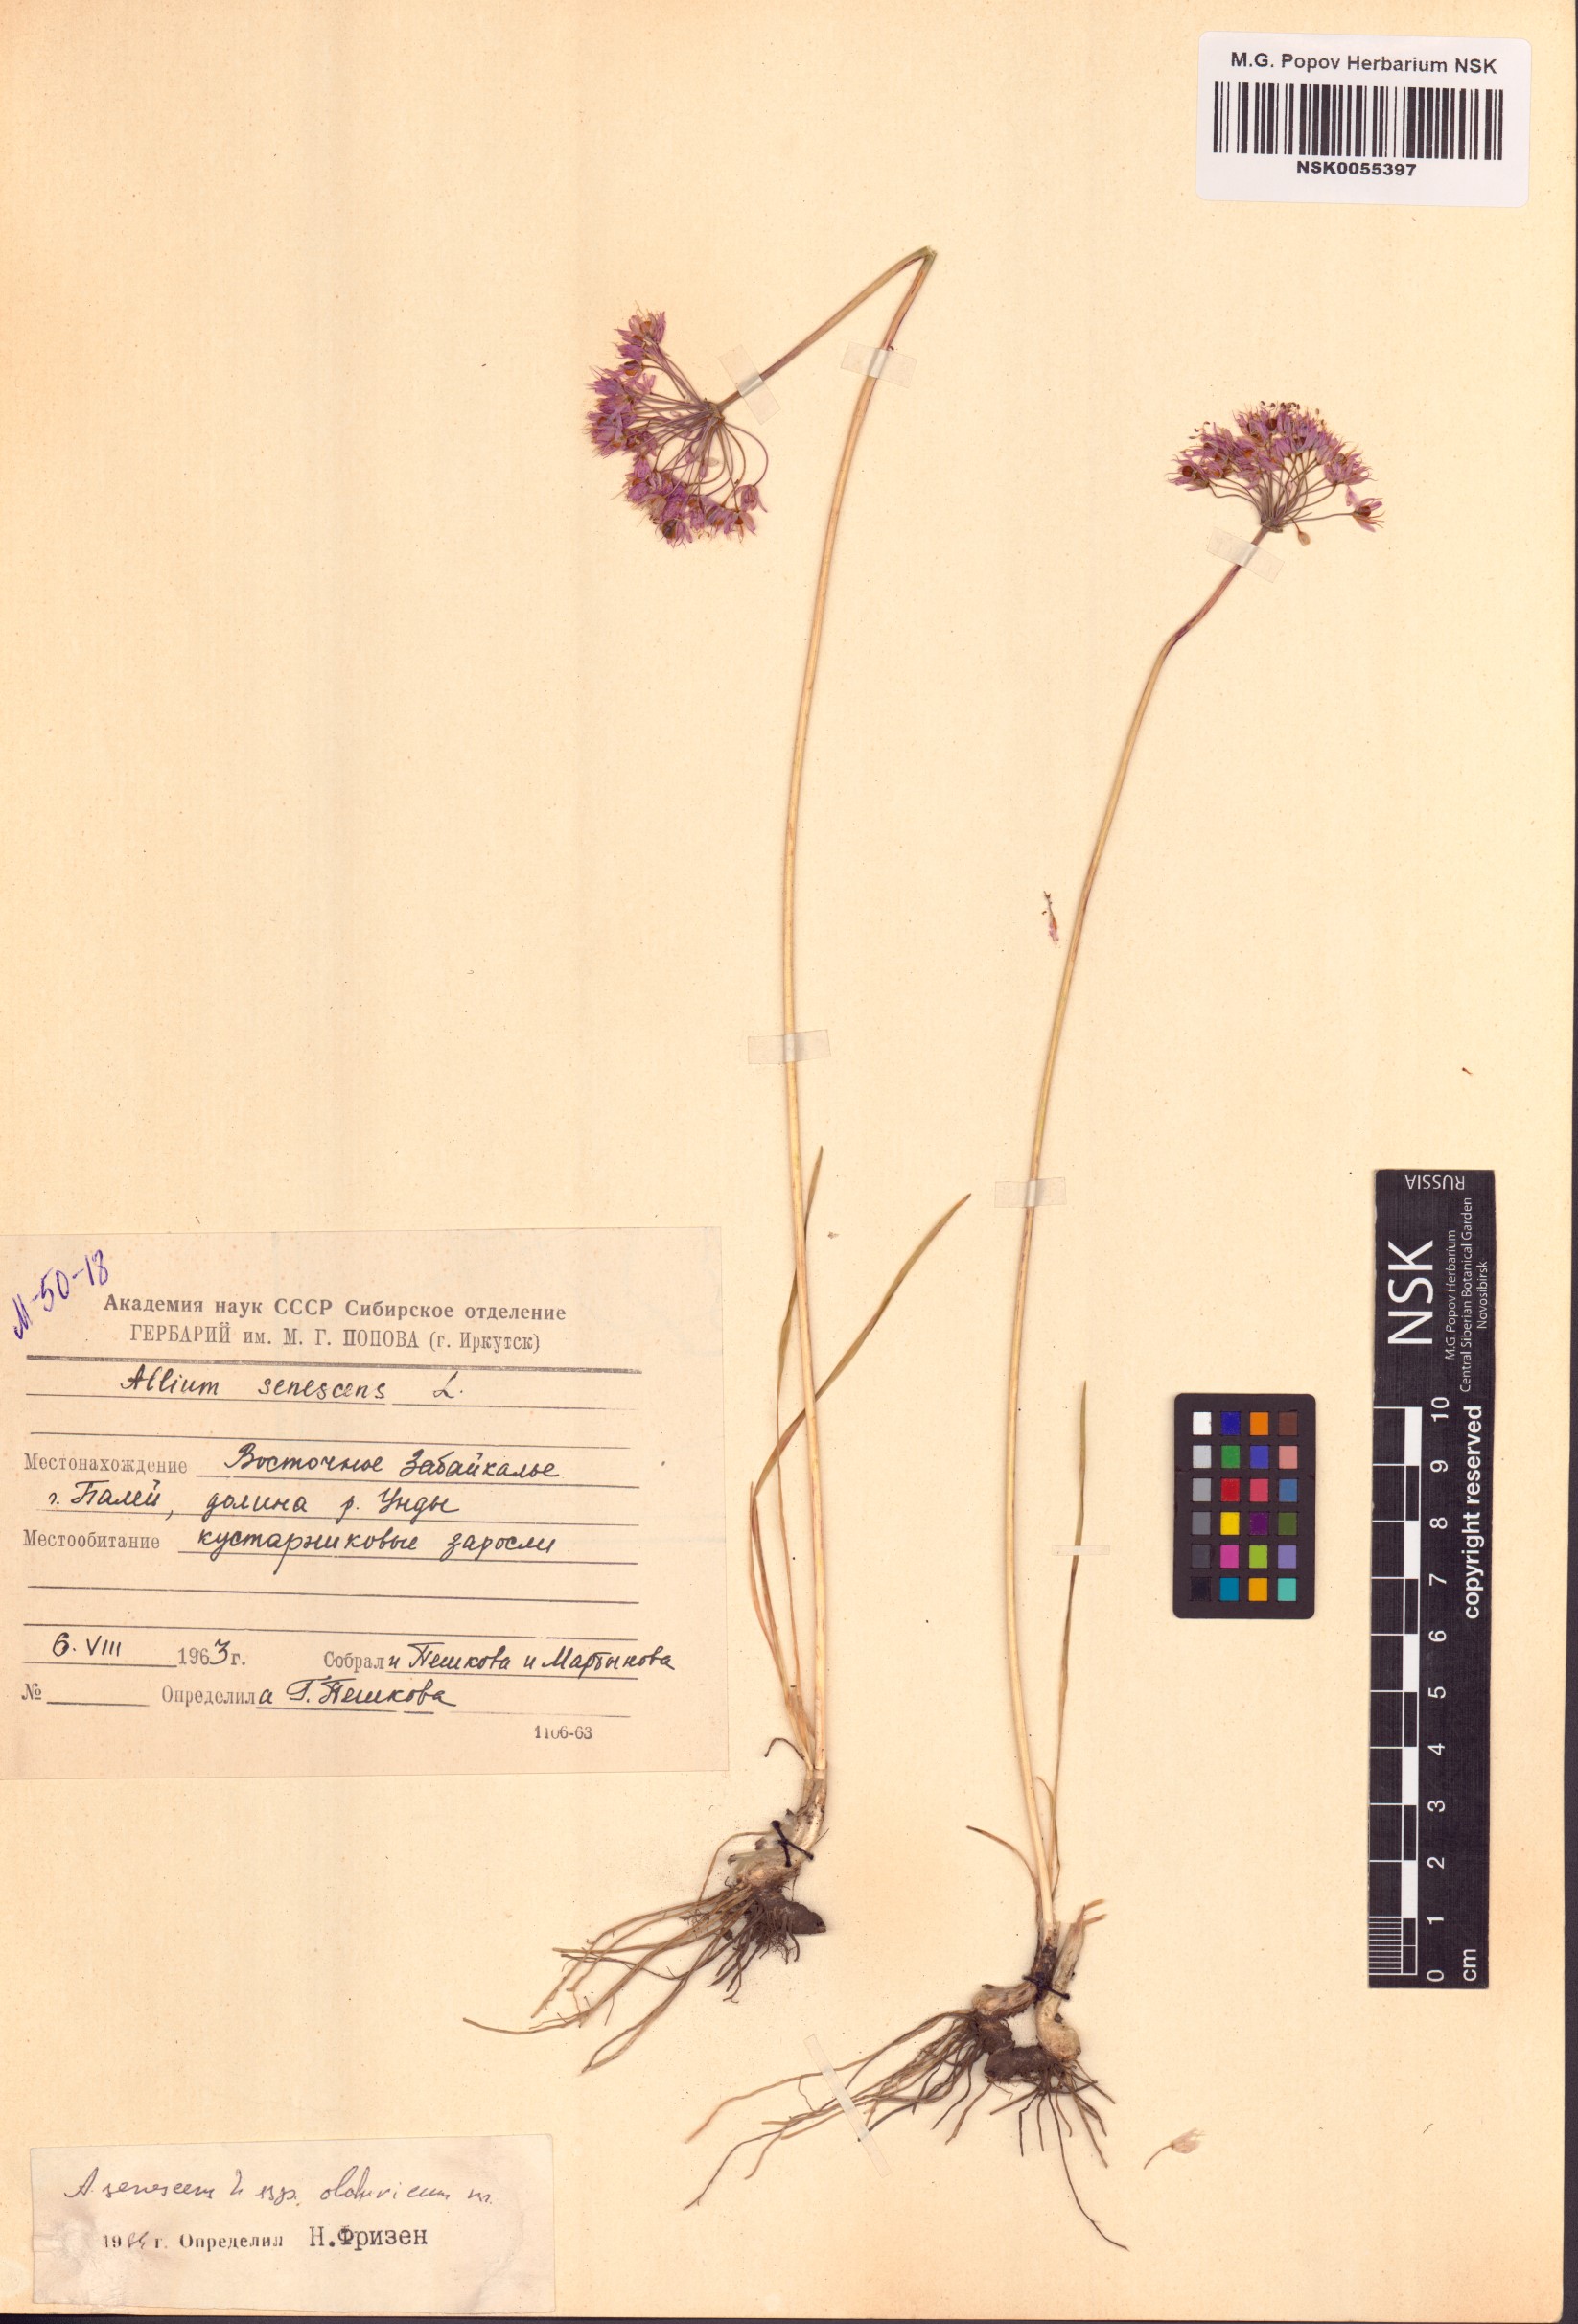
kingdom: Plantae
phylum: Tracheophyta
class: Liliopsida
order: Asparagales
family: Amaryllidaceae
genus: Allium
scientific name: Allium senescens
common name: German garlic
